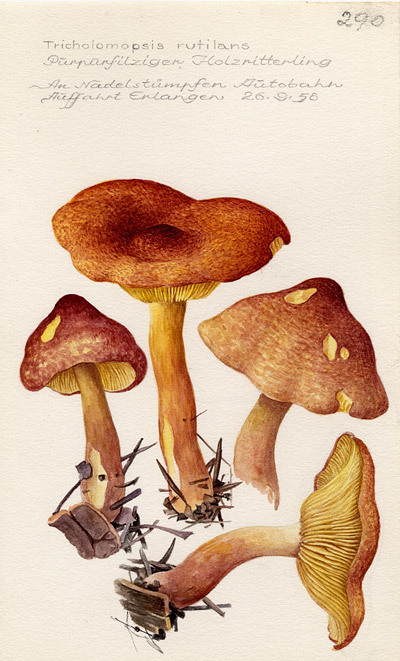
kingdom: Fungi
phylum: Basidiomycota
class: Agaricomycetes
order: Agaricales
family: Tricholomataceae
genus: Tricholomopsis
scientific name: Tricholomopsis rutilans
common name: Plums and custard
